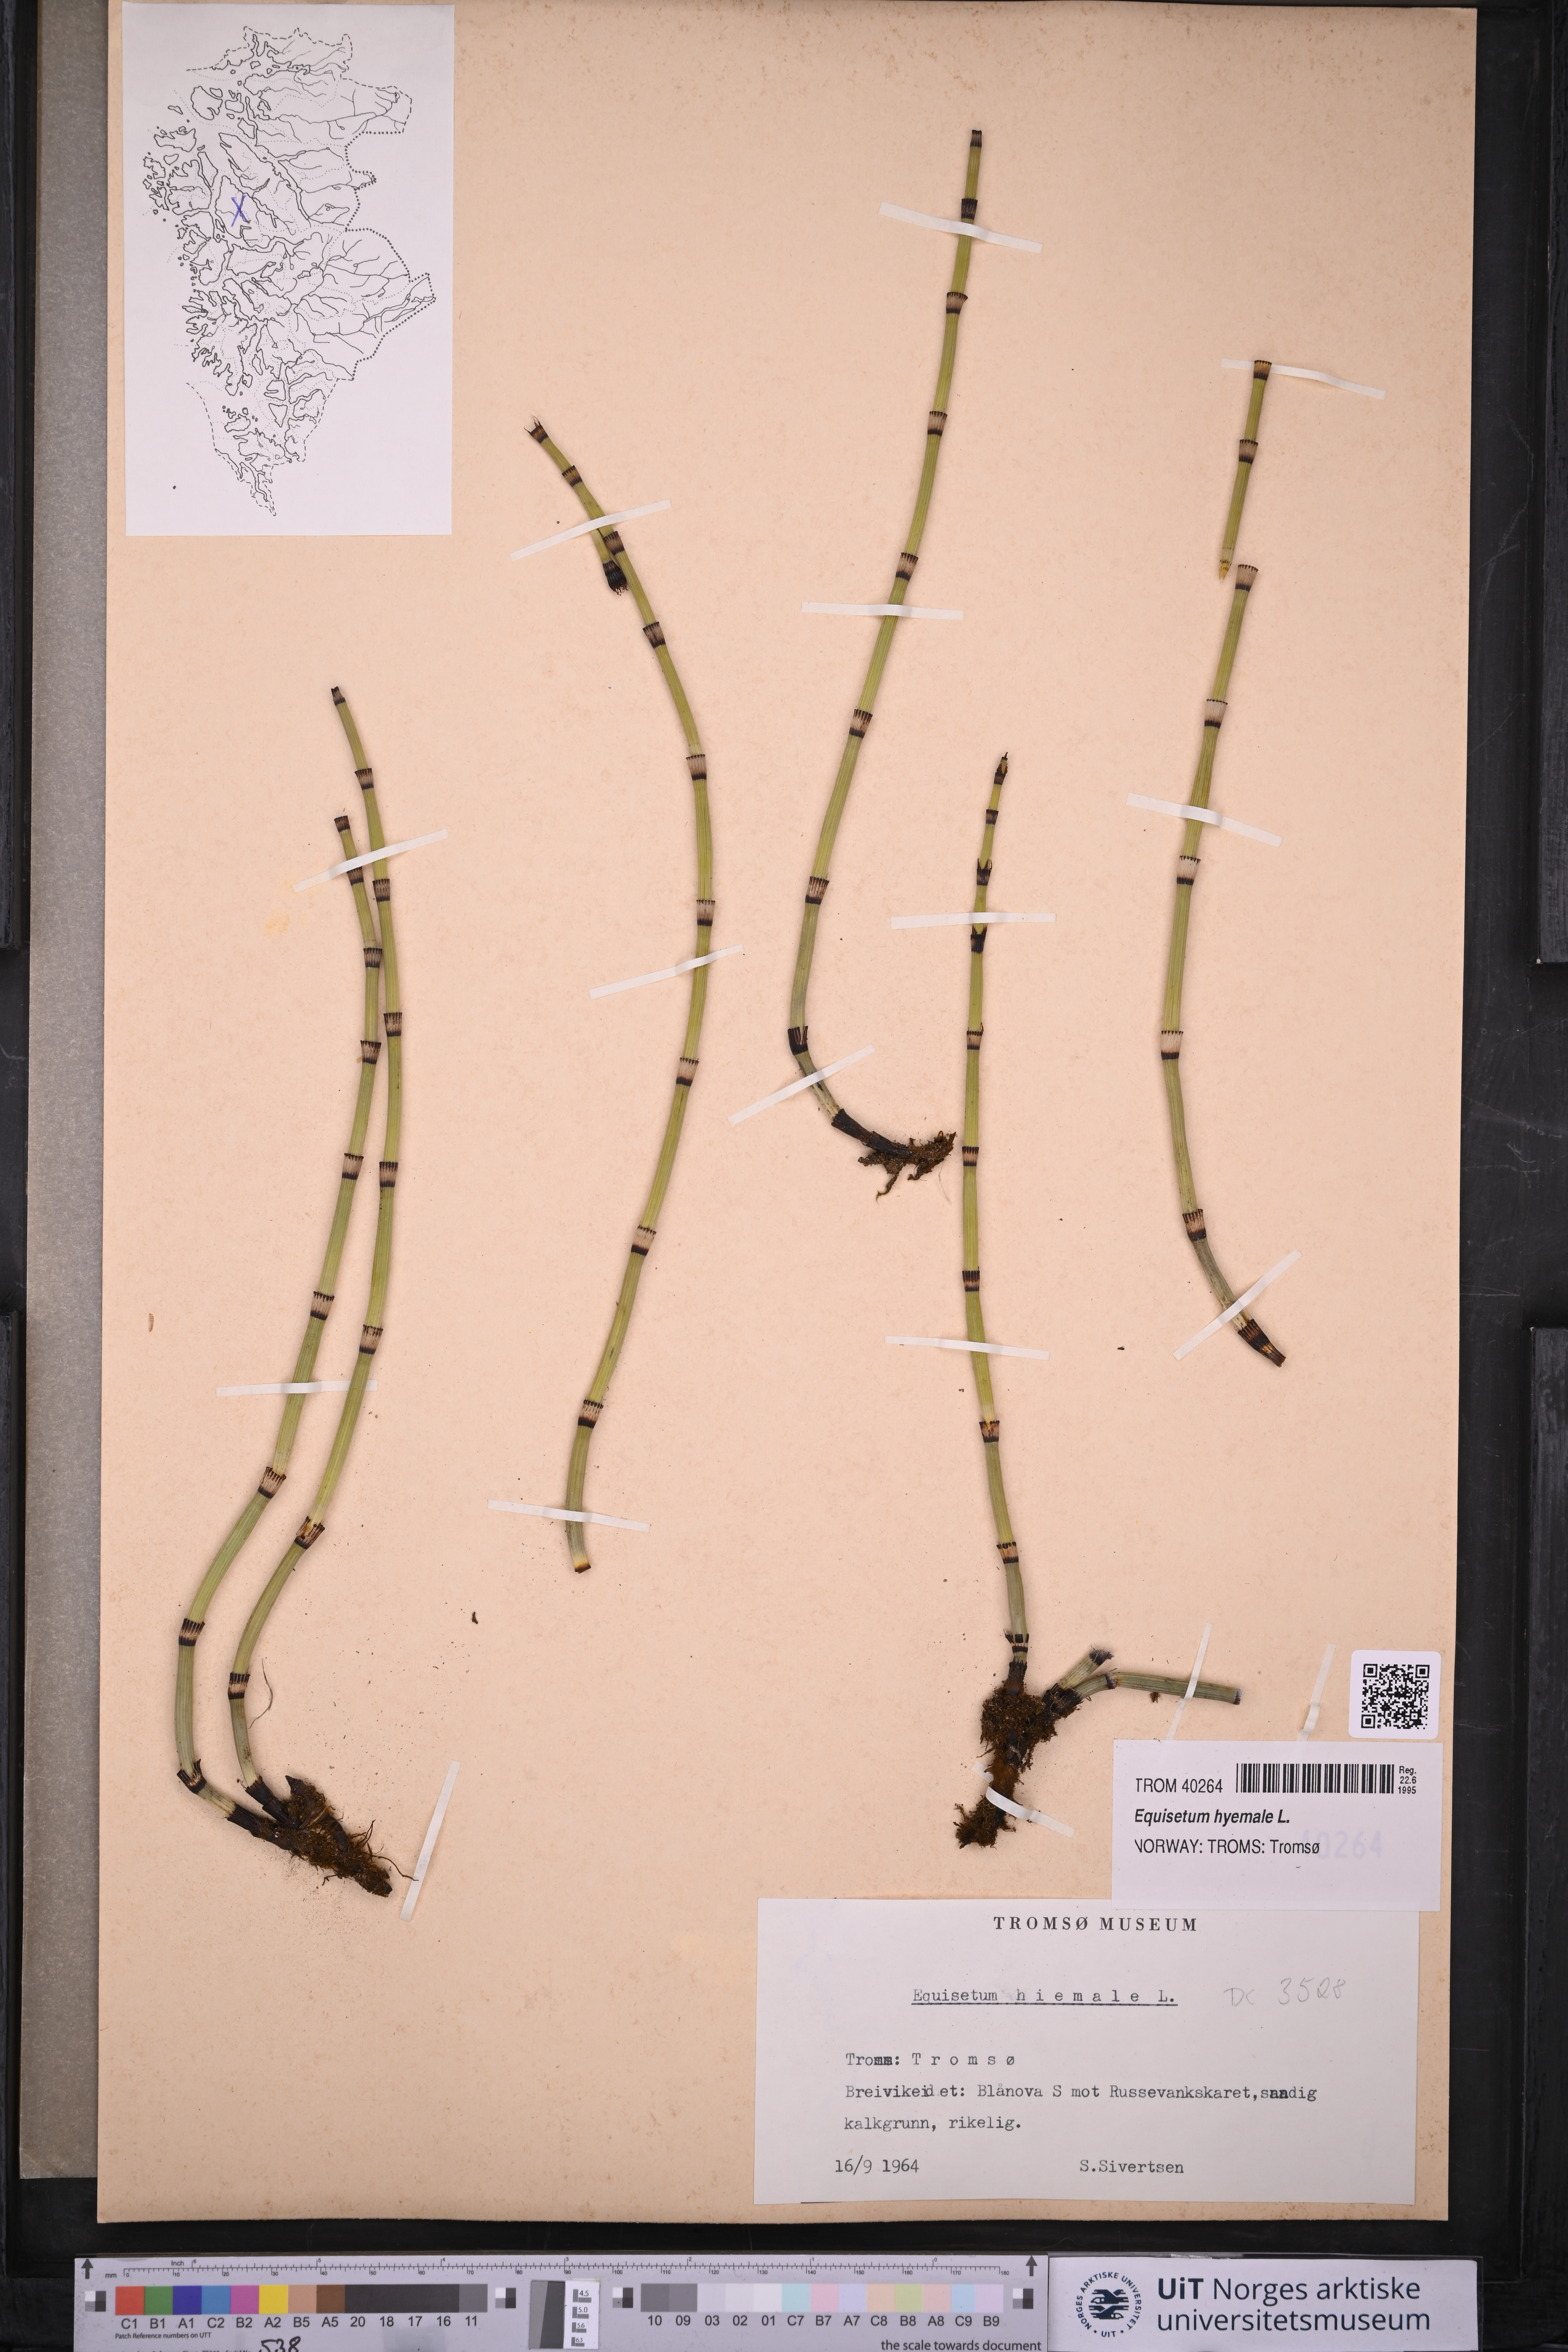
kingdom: Plantae
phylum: Tracheophyta
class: Polypodiopsida
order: Equisetales
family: Equisetaceae
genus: Equisetum
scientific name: Equisetum hyemale
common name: Rough horsetail
